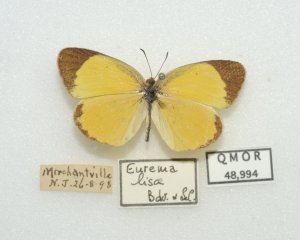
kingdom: Animalia
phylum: Arthropoda
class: Insecta
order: Lepidoptera
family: Pieridae
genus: Pyrisitia
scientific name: Pyrisitia lisa
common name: Little Yellow
